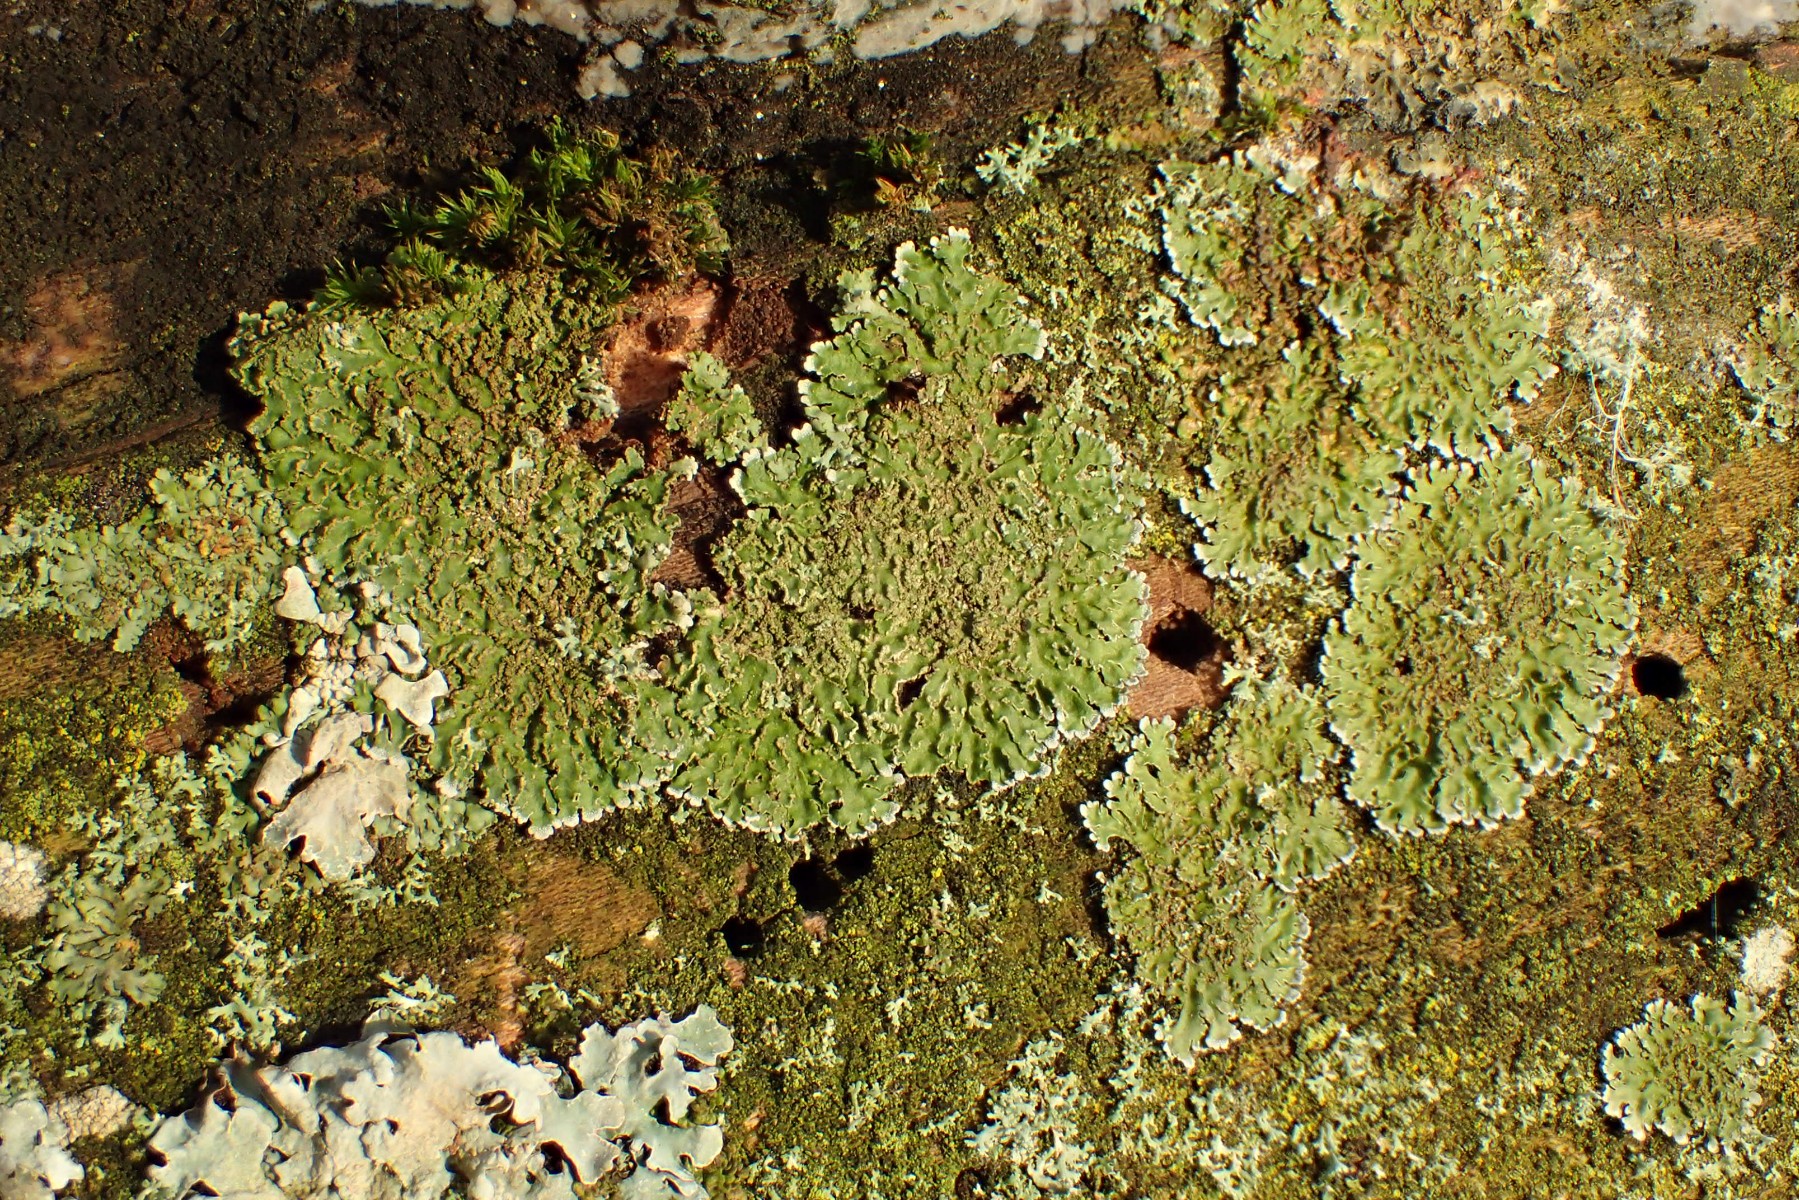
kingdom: Fungi
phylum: Ascomycota
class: Lecanoromycetes
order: Caliciales
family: Physciaceae
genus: Physconia
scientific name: Physconia enteroxantha
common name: grynet dugrosetlav
